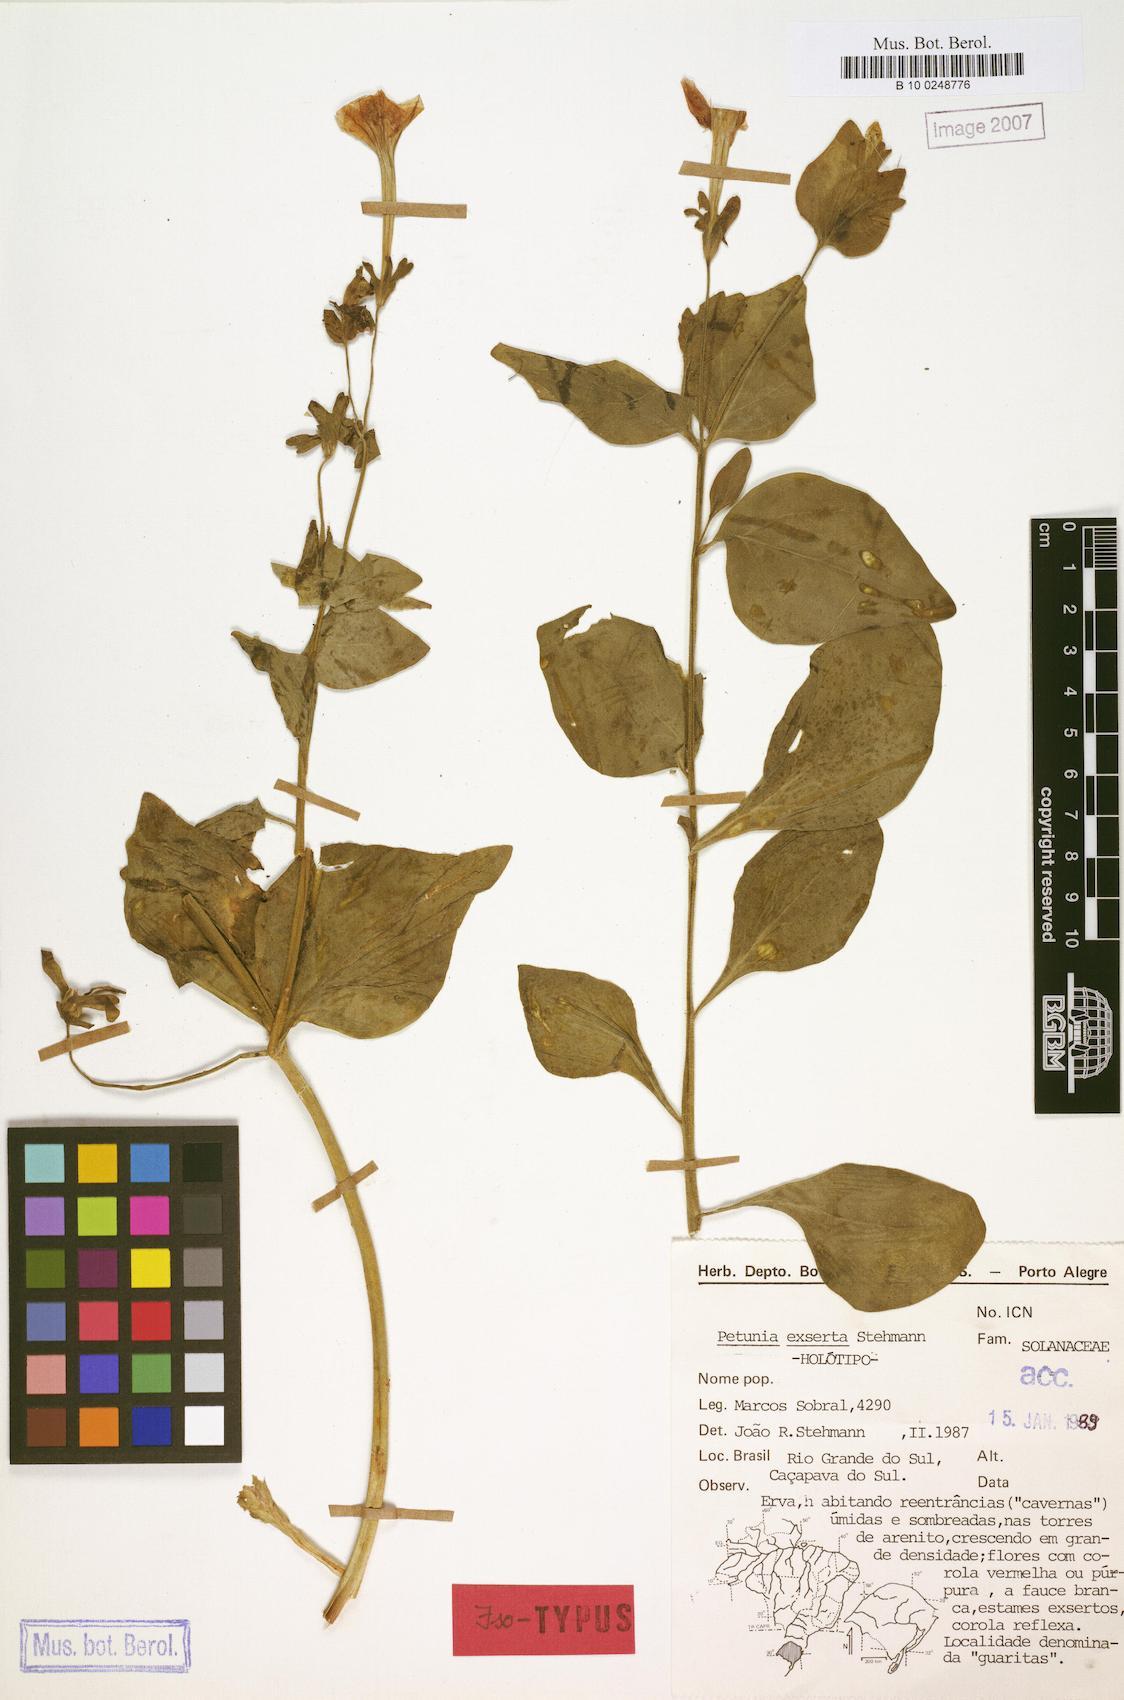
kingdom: Plantae
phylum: Tracheophyta
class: Magnoliopsida
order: Solanales
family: Solanaceae
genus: Petunia
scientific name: Petunia exserta
